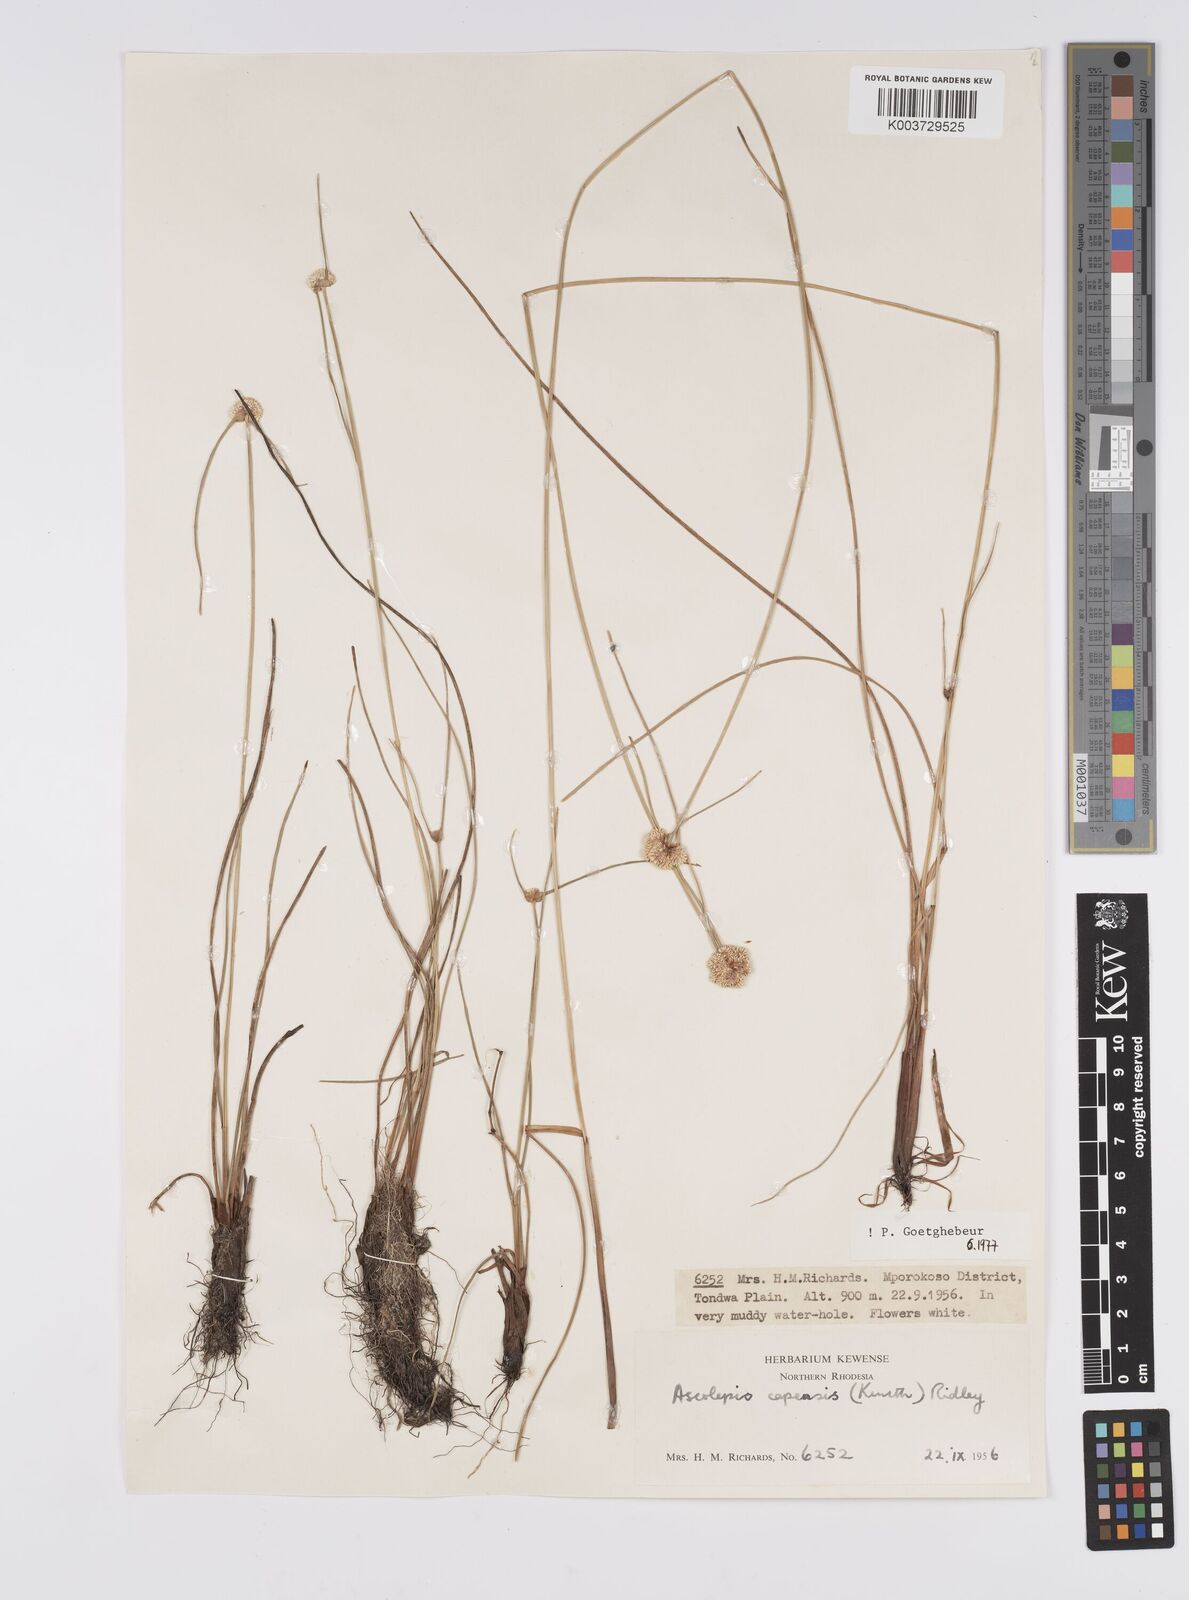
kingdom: Plantae
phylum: Tracheophyta
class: Liliopsida
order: Poales
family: Cyperaceae
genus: Cyperus
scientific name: Cyperus
